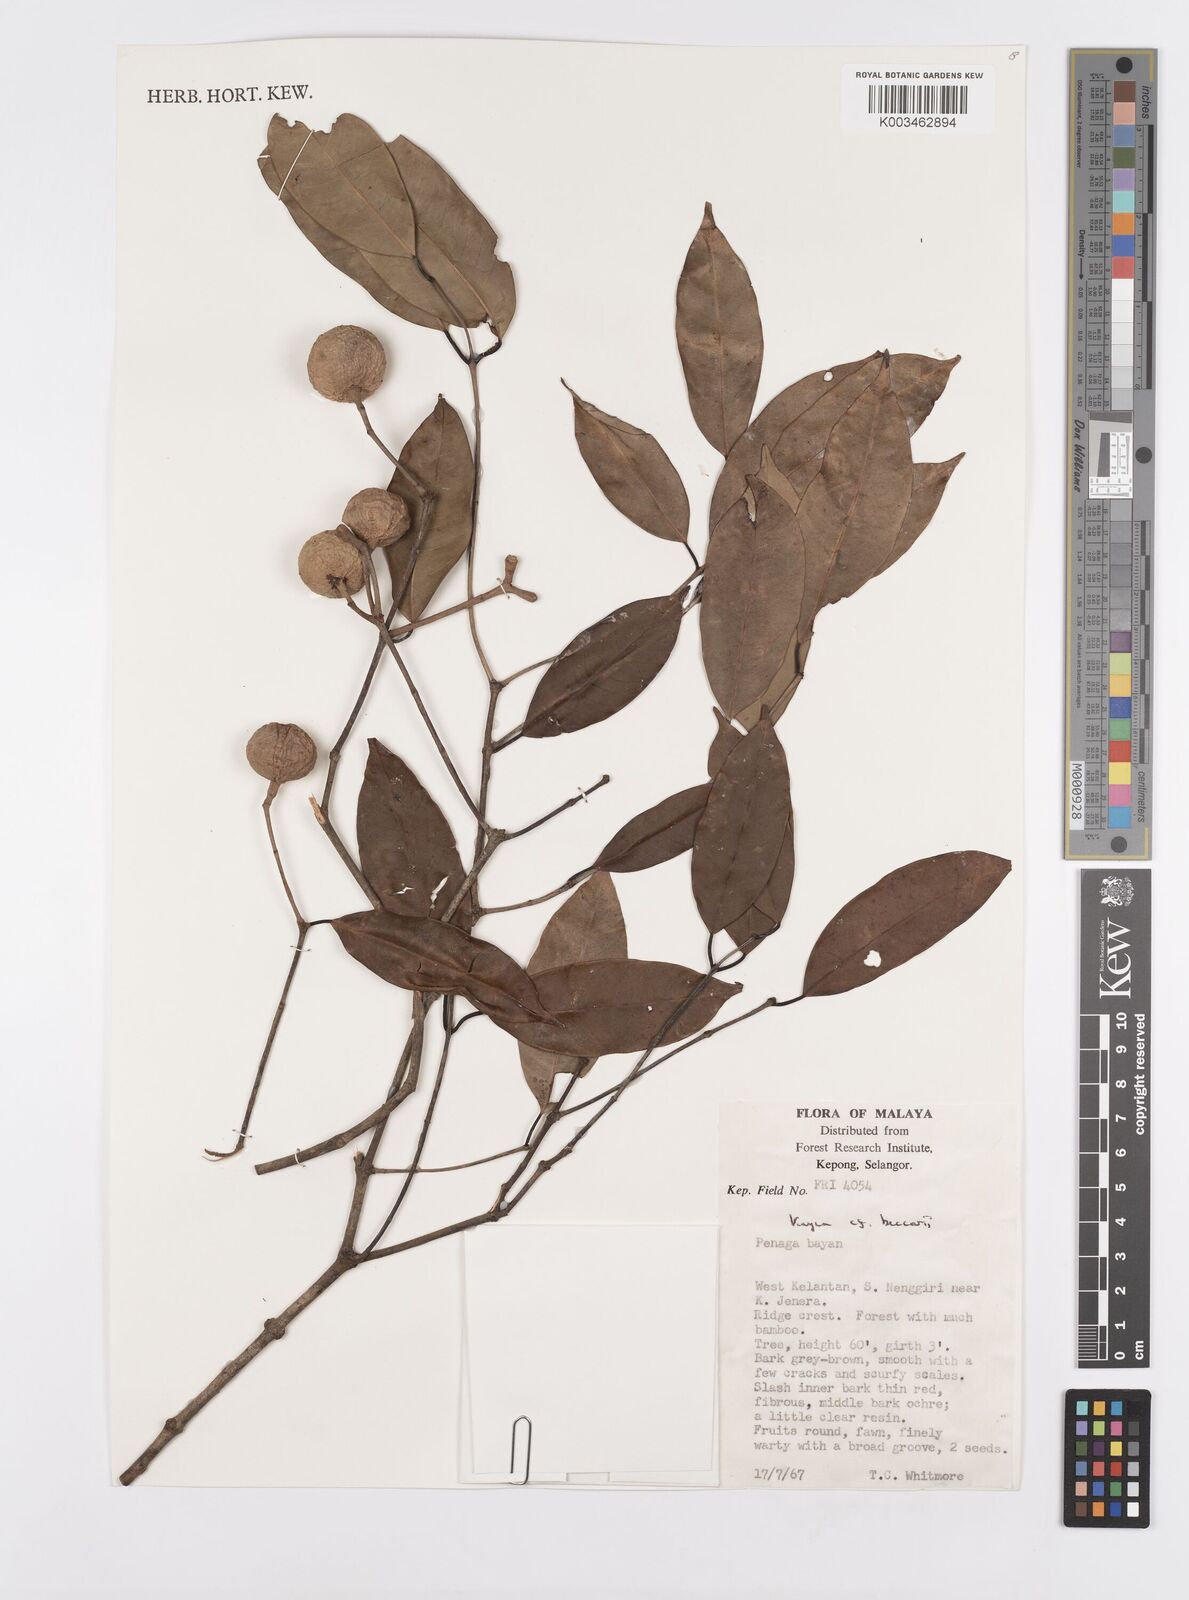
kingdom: Plantae
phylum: Tracheophyta
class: Magnoliopsida
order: Malpighiales
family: Calophyllaceae
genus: Kayea
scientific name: Kayea beccariana
